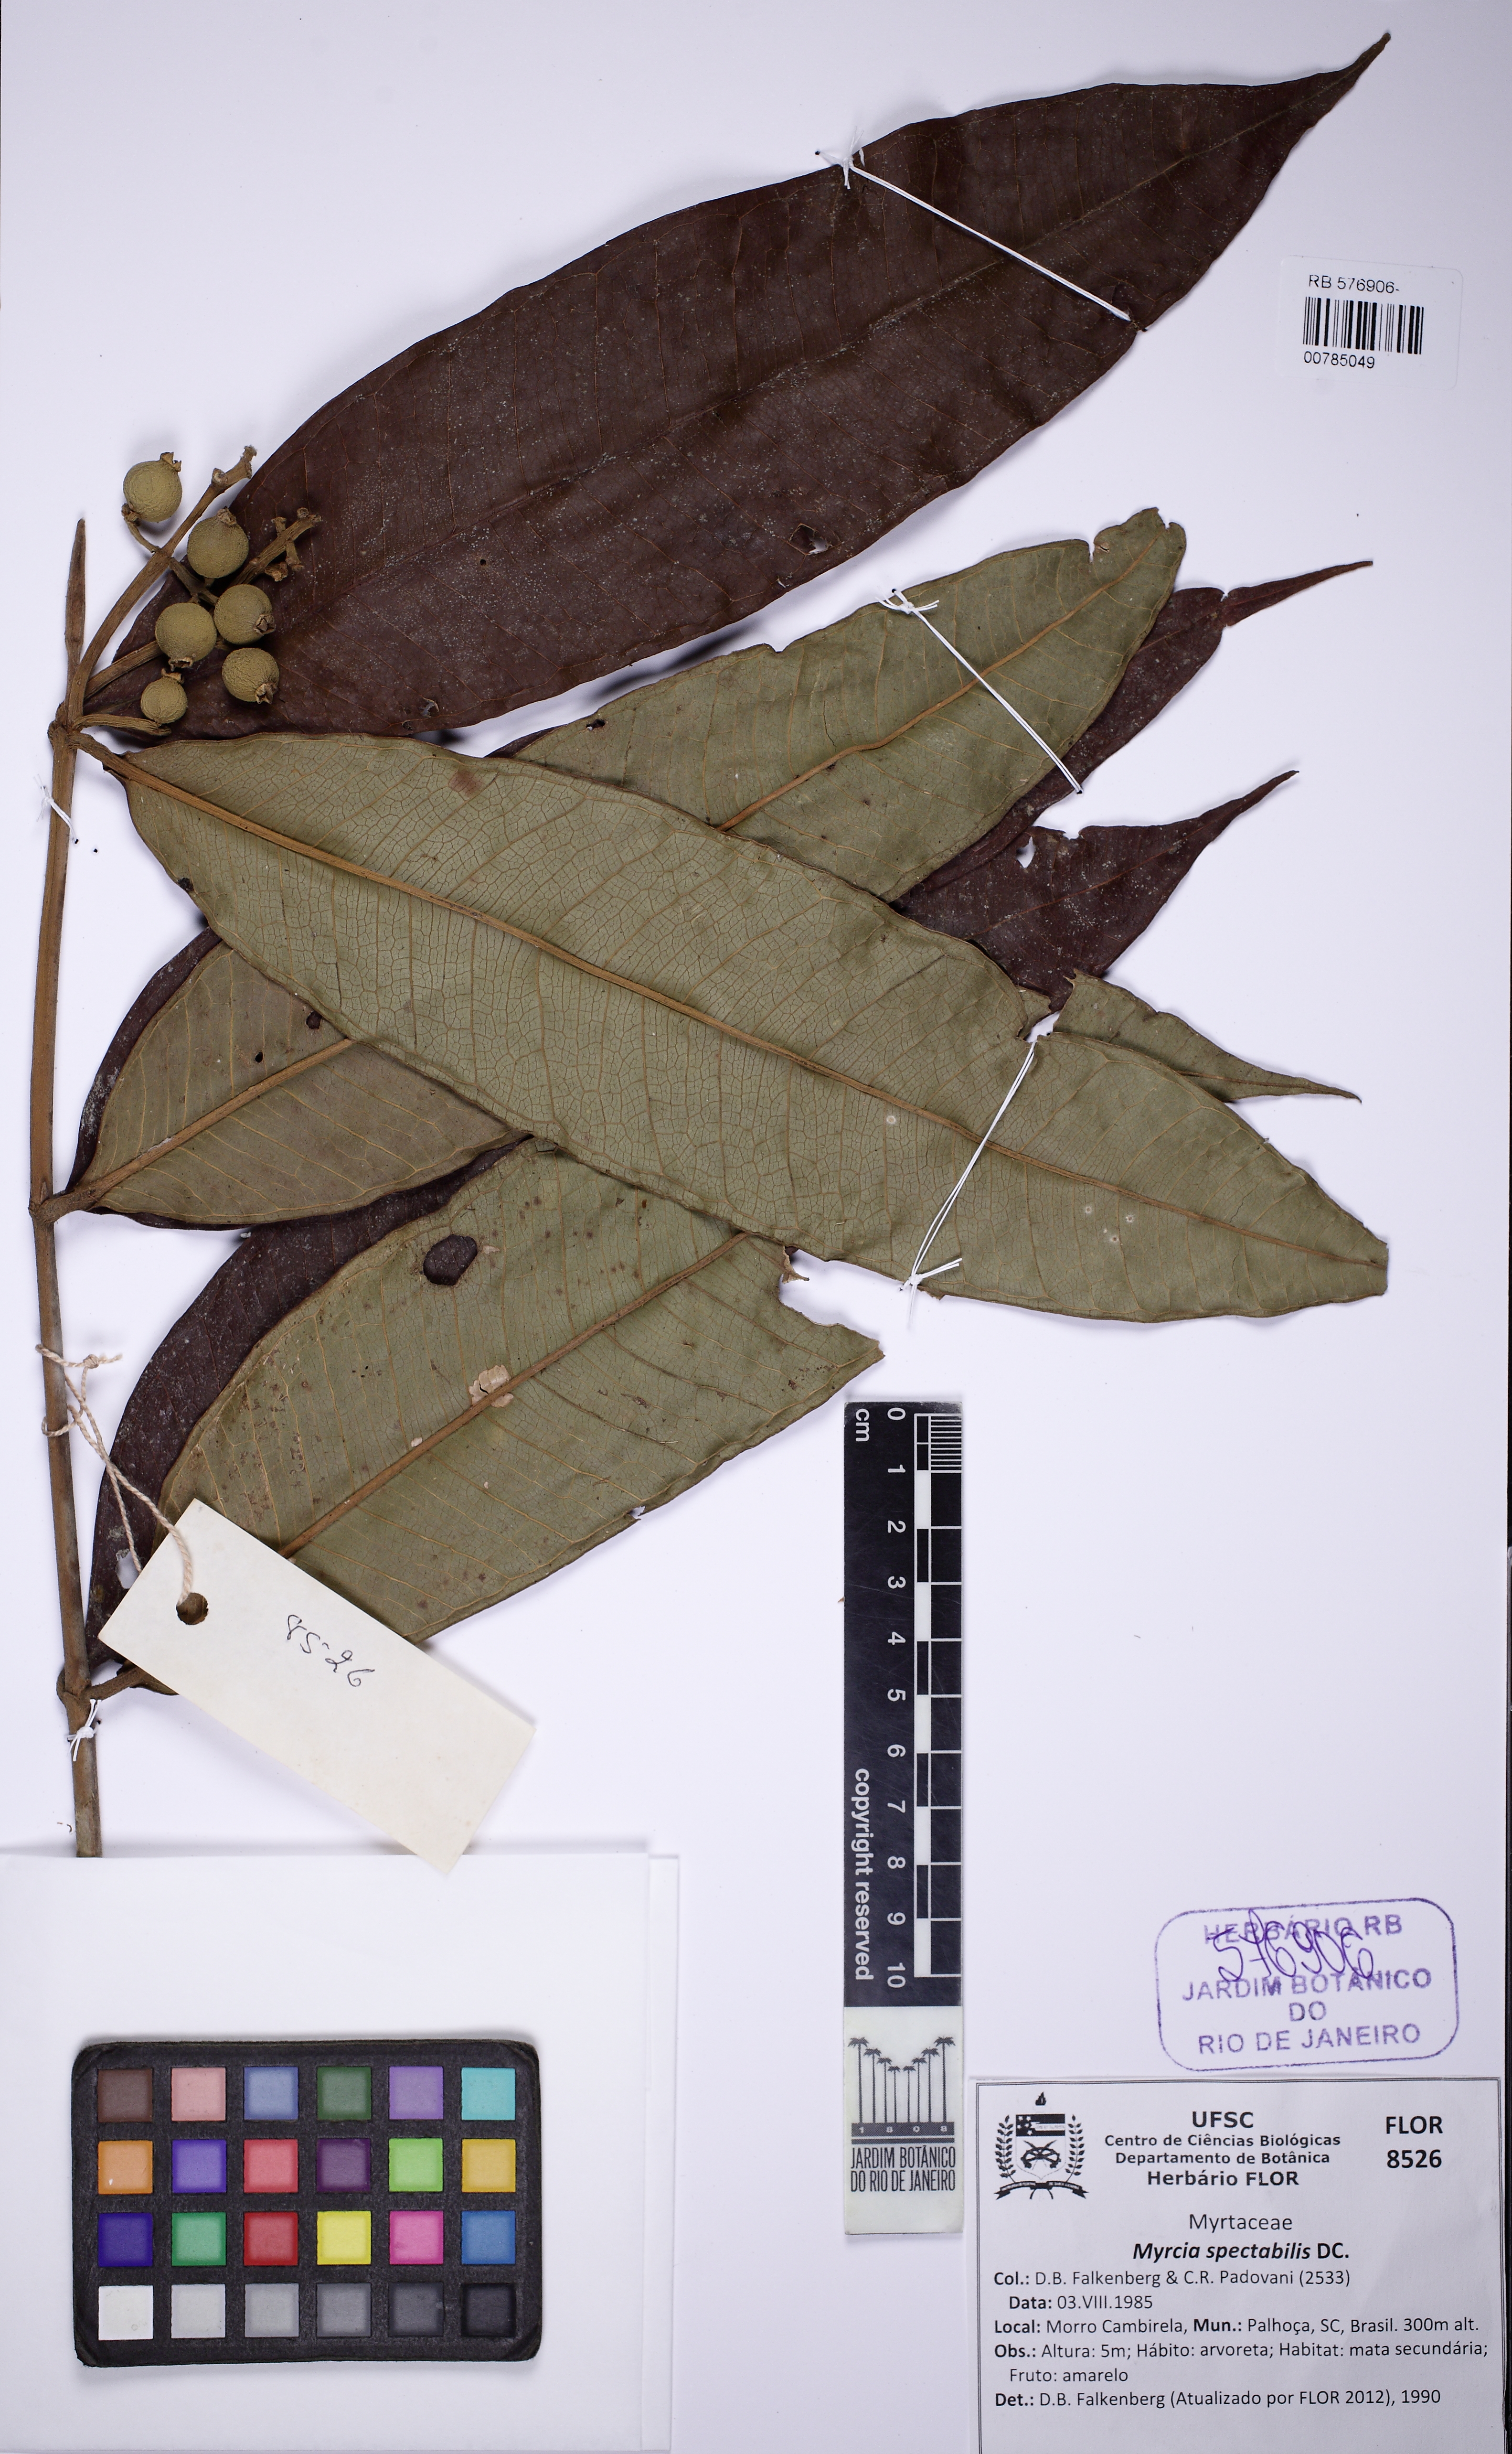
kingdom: Plantae
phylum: Tracheophyta
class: Magnoliopsida
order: Myrtales
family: Myrtaceae
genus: Myrcia
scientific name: Myrcia spectabilis
